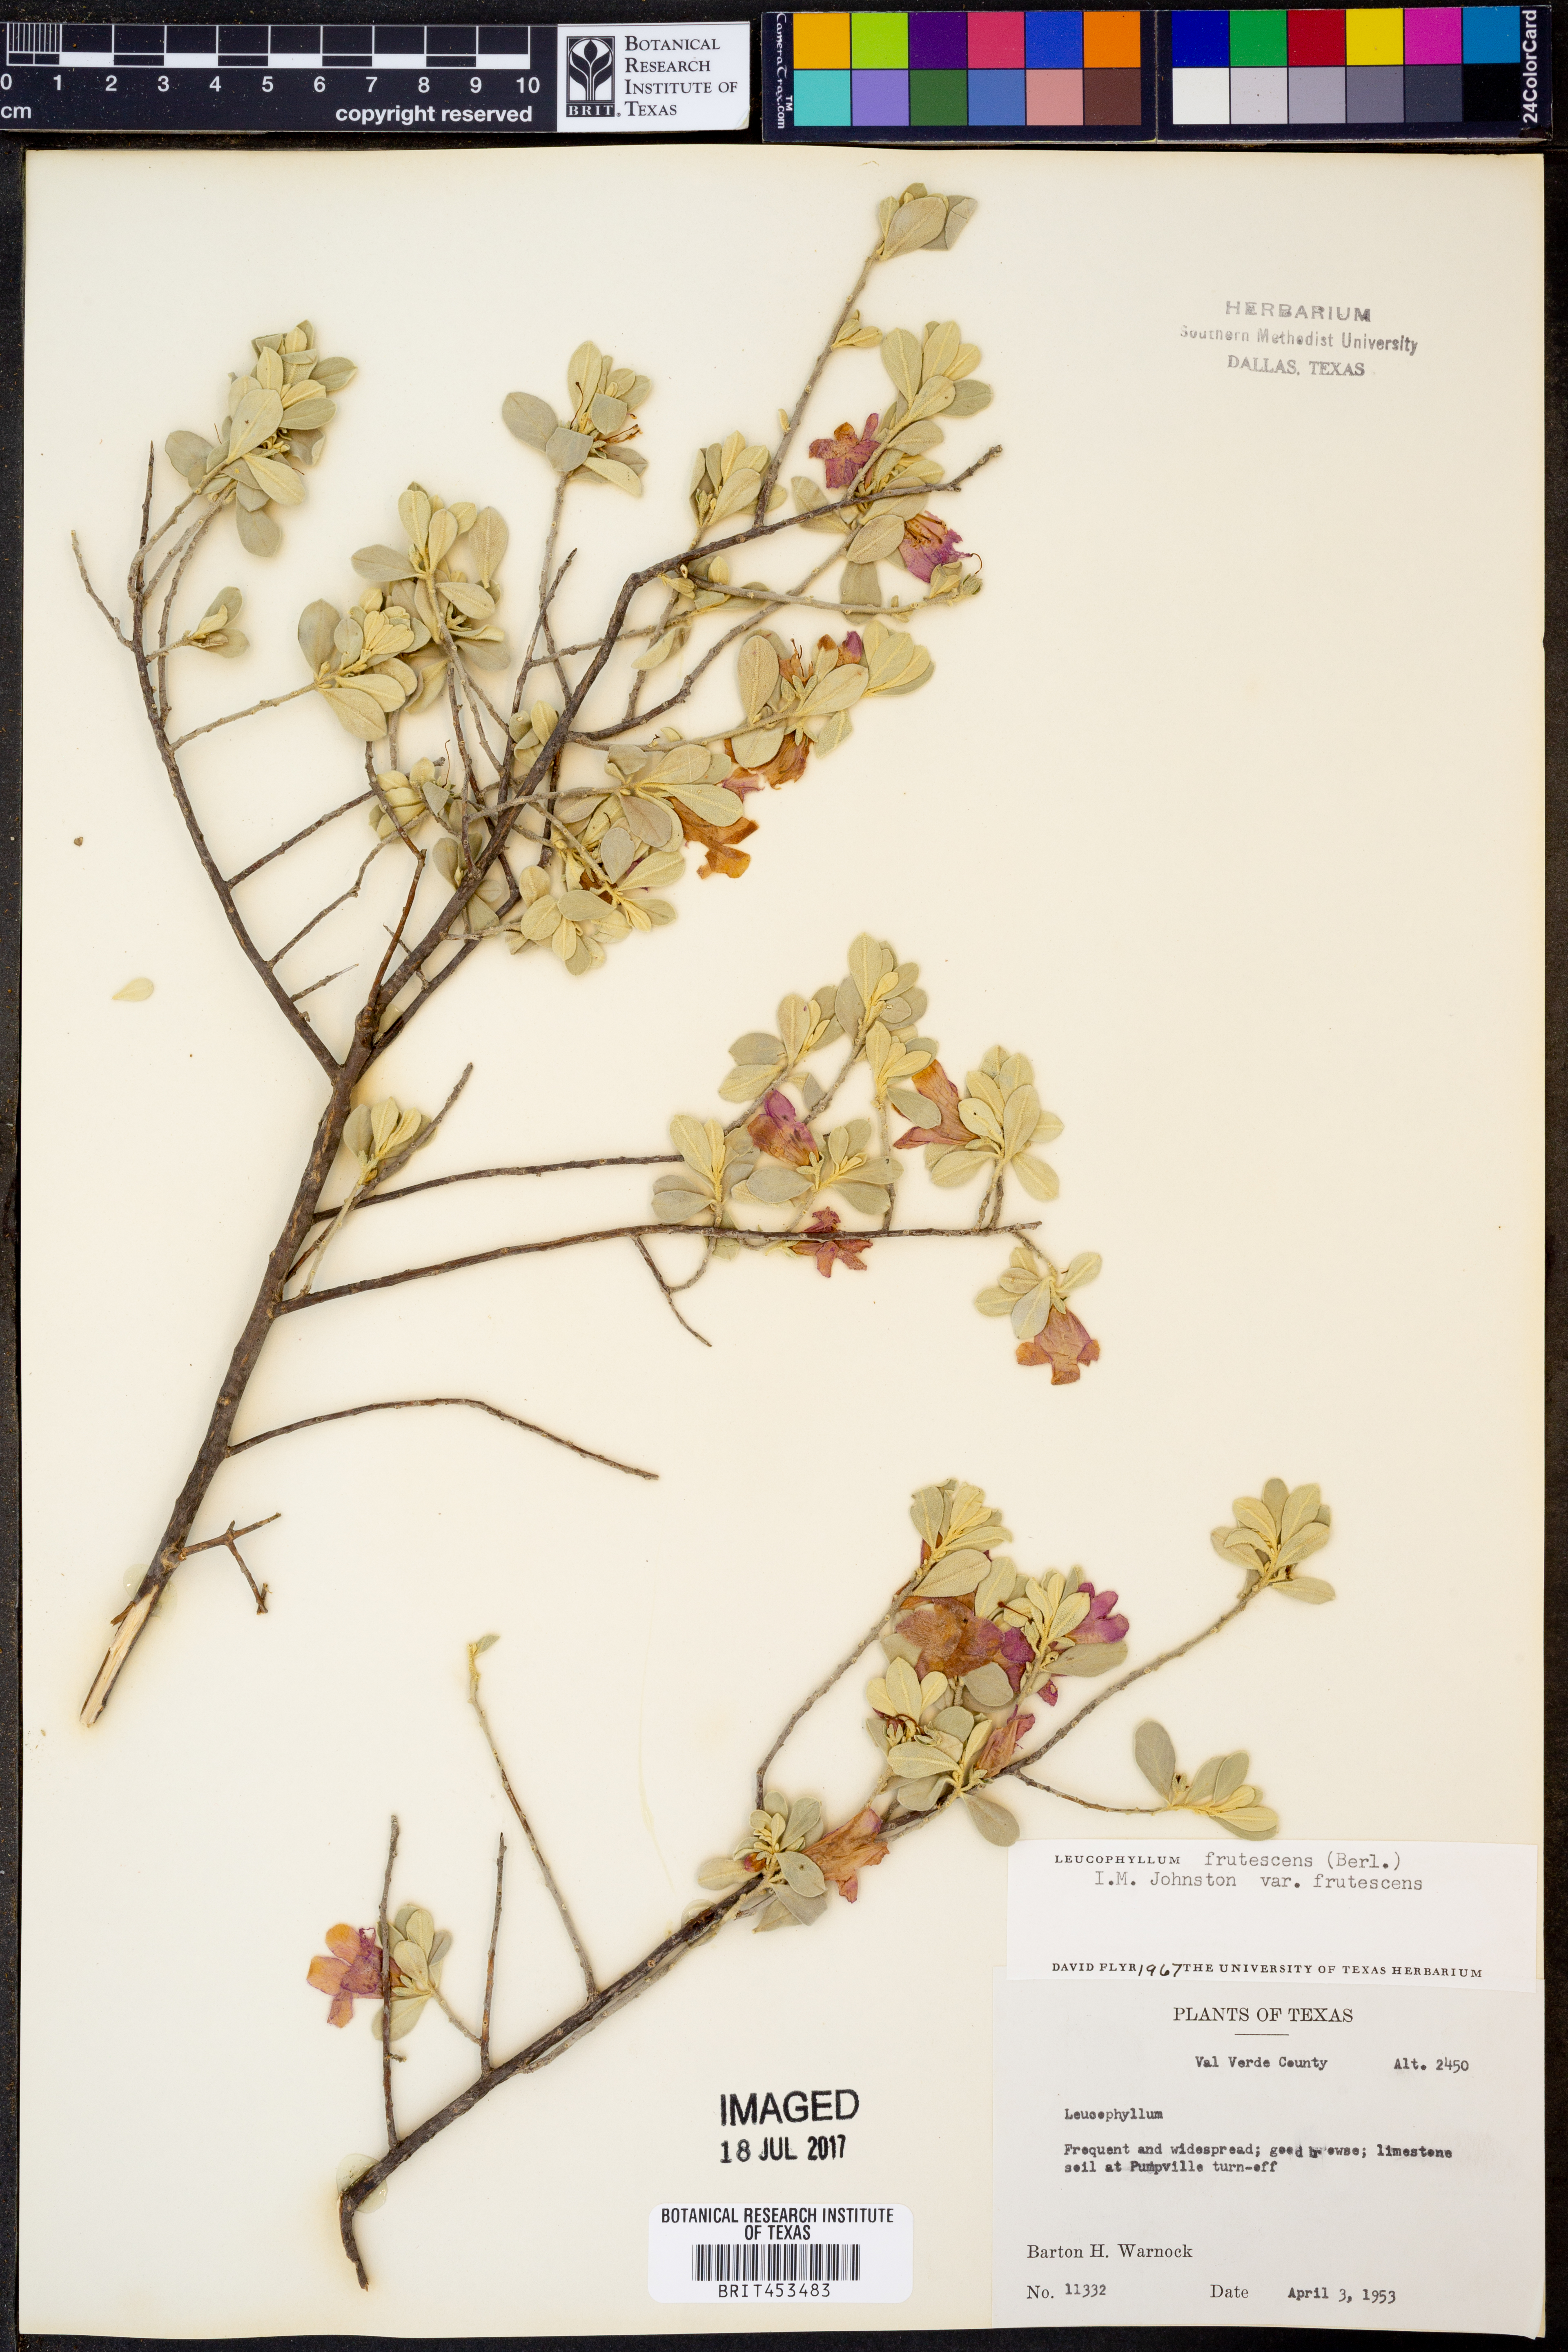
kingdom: Plantae
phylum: Tracheophyta
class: Magnoliopsida
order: Lamiales
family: Scrophulariaceae
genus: Leucophyllum
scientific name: Leucophyllum frutescens
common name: Texas silverleaf
